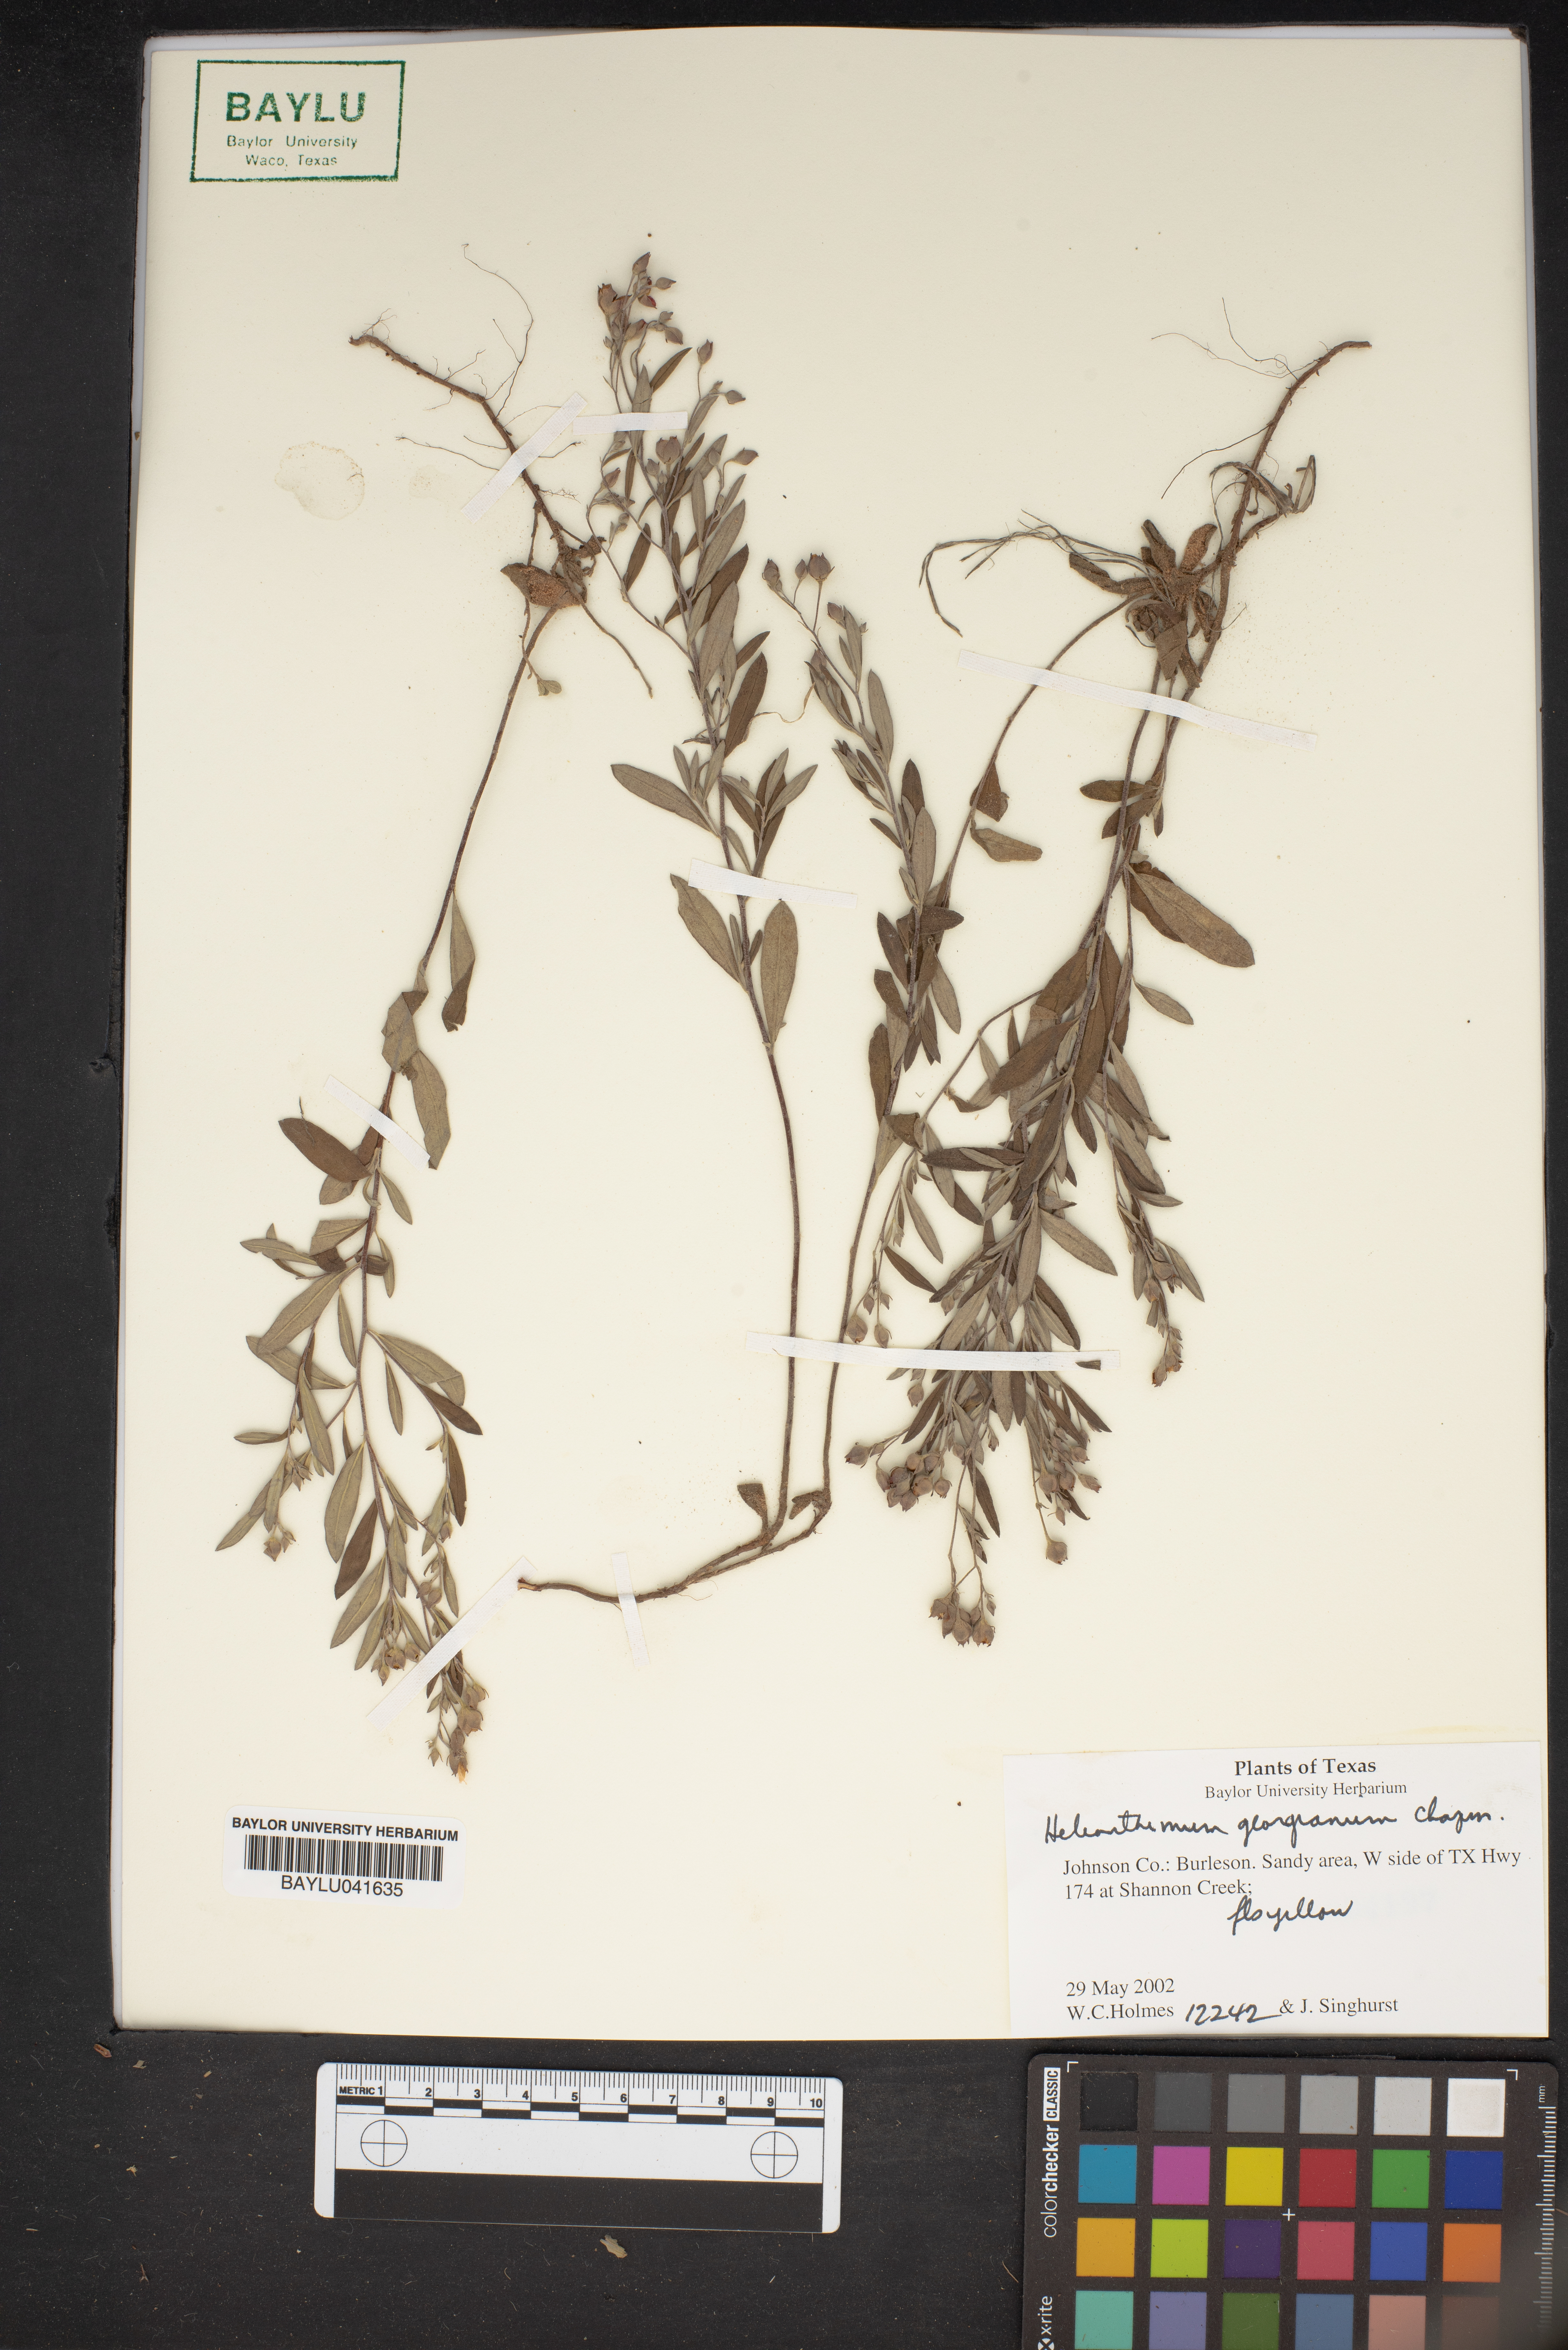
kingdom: Plantae
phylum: Tracheophyta
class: Magnoliopsida
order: Malvales
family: Cistaceae
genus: Crocanthemum
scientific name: Crocanthemum georgianum
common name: Georgia frostweed
